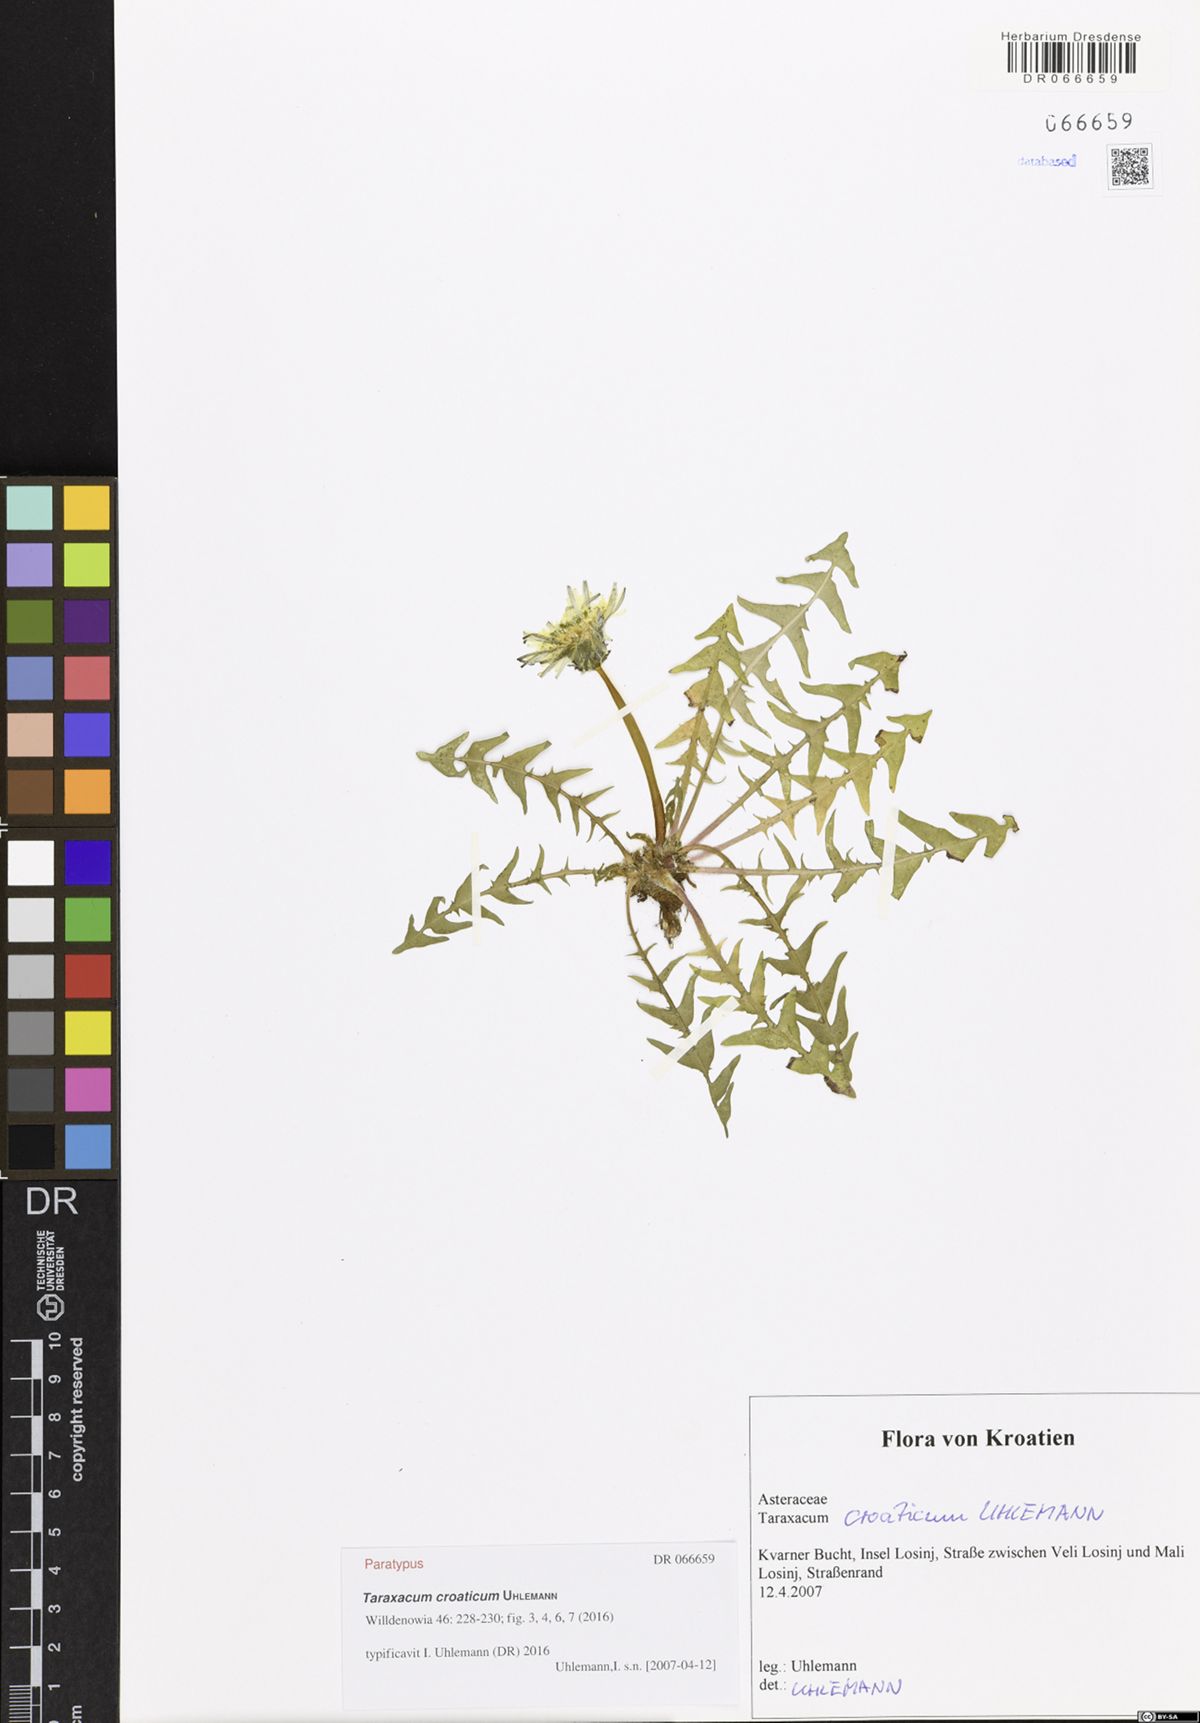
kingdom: Plantae
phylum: Tracheophyta
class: Magnoliopsida
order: Asterales
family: Asteraceae
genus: Taraxacum
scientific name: Taraxacum croaticum
